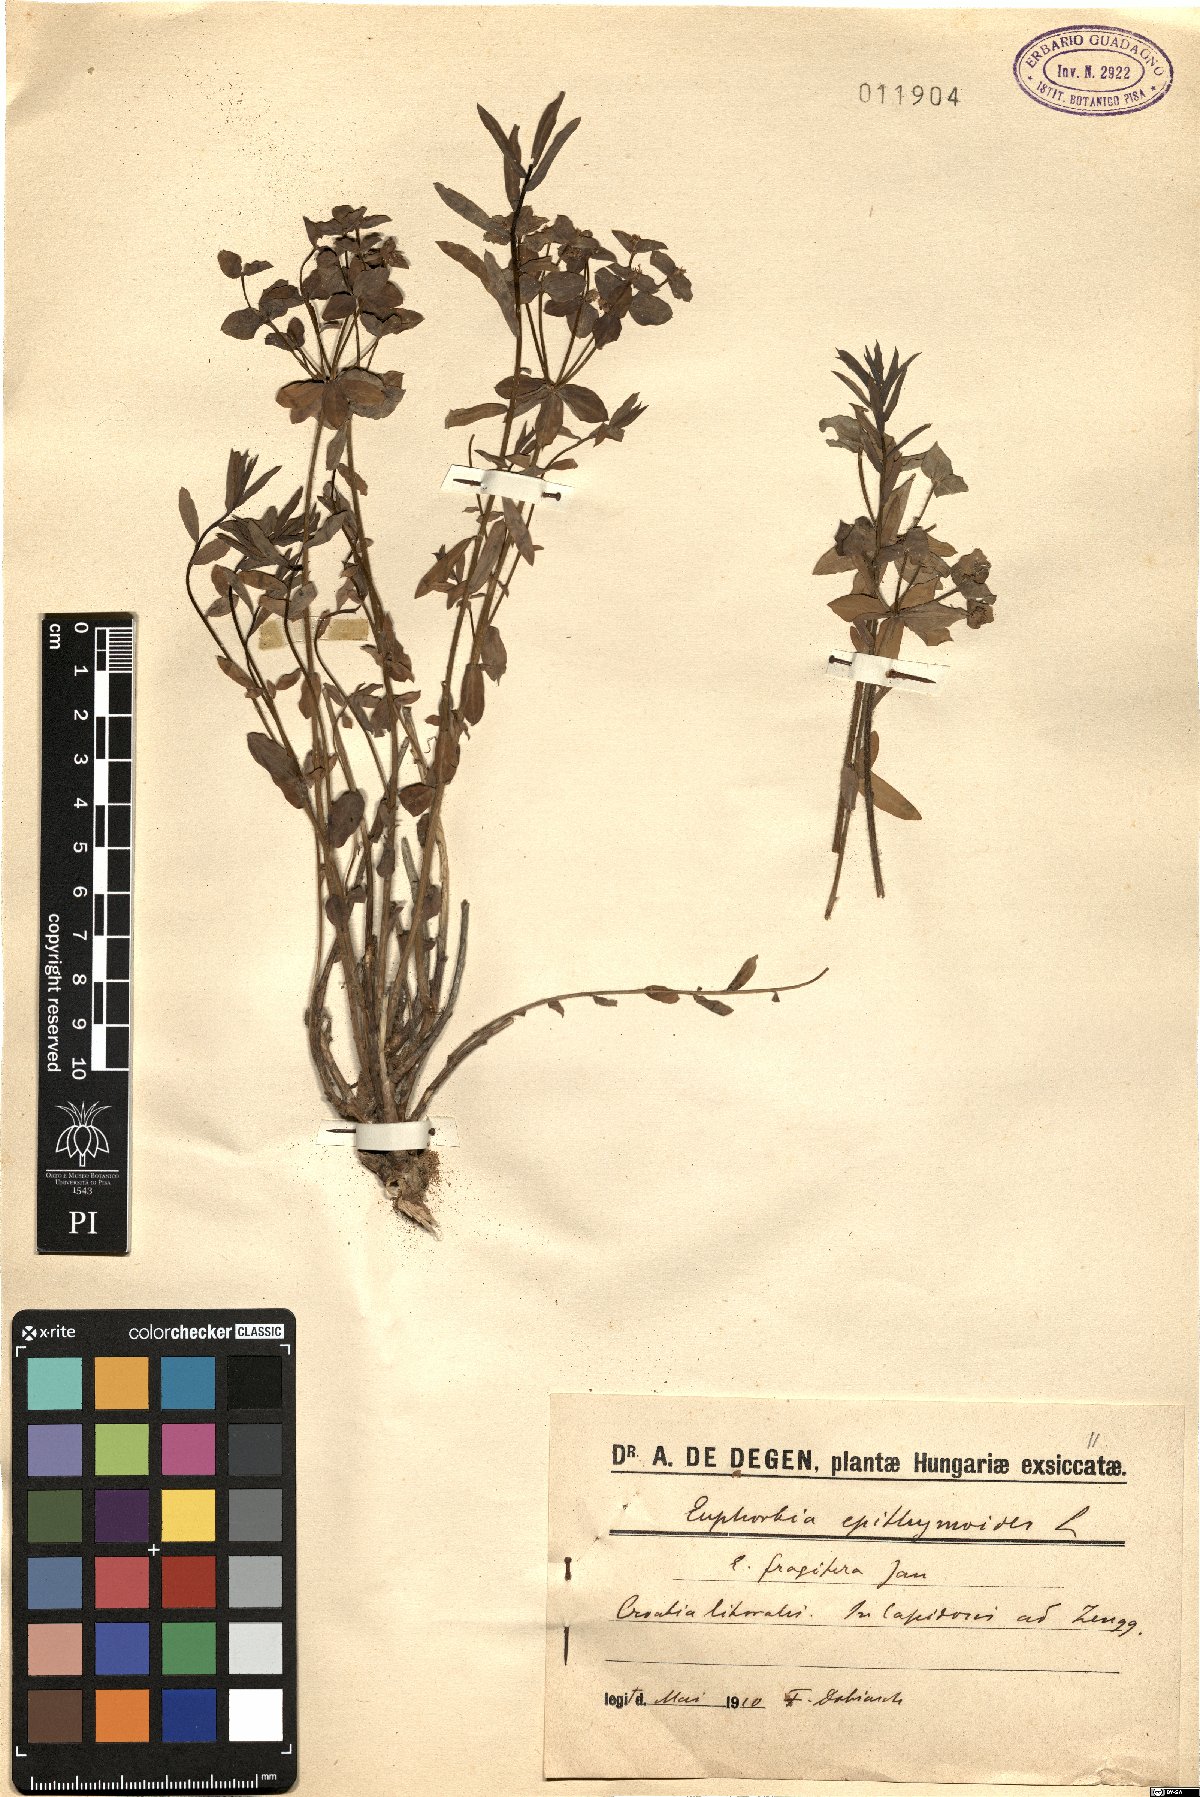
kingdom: Plantae
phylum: Tracheophyta
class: Magnoliopsida
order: Malpighiales
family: Euphorbiaceae
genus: Euphorbia
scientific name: Euphorbia epithymoides
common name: Cushion spurge
